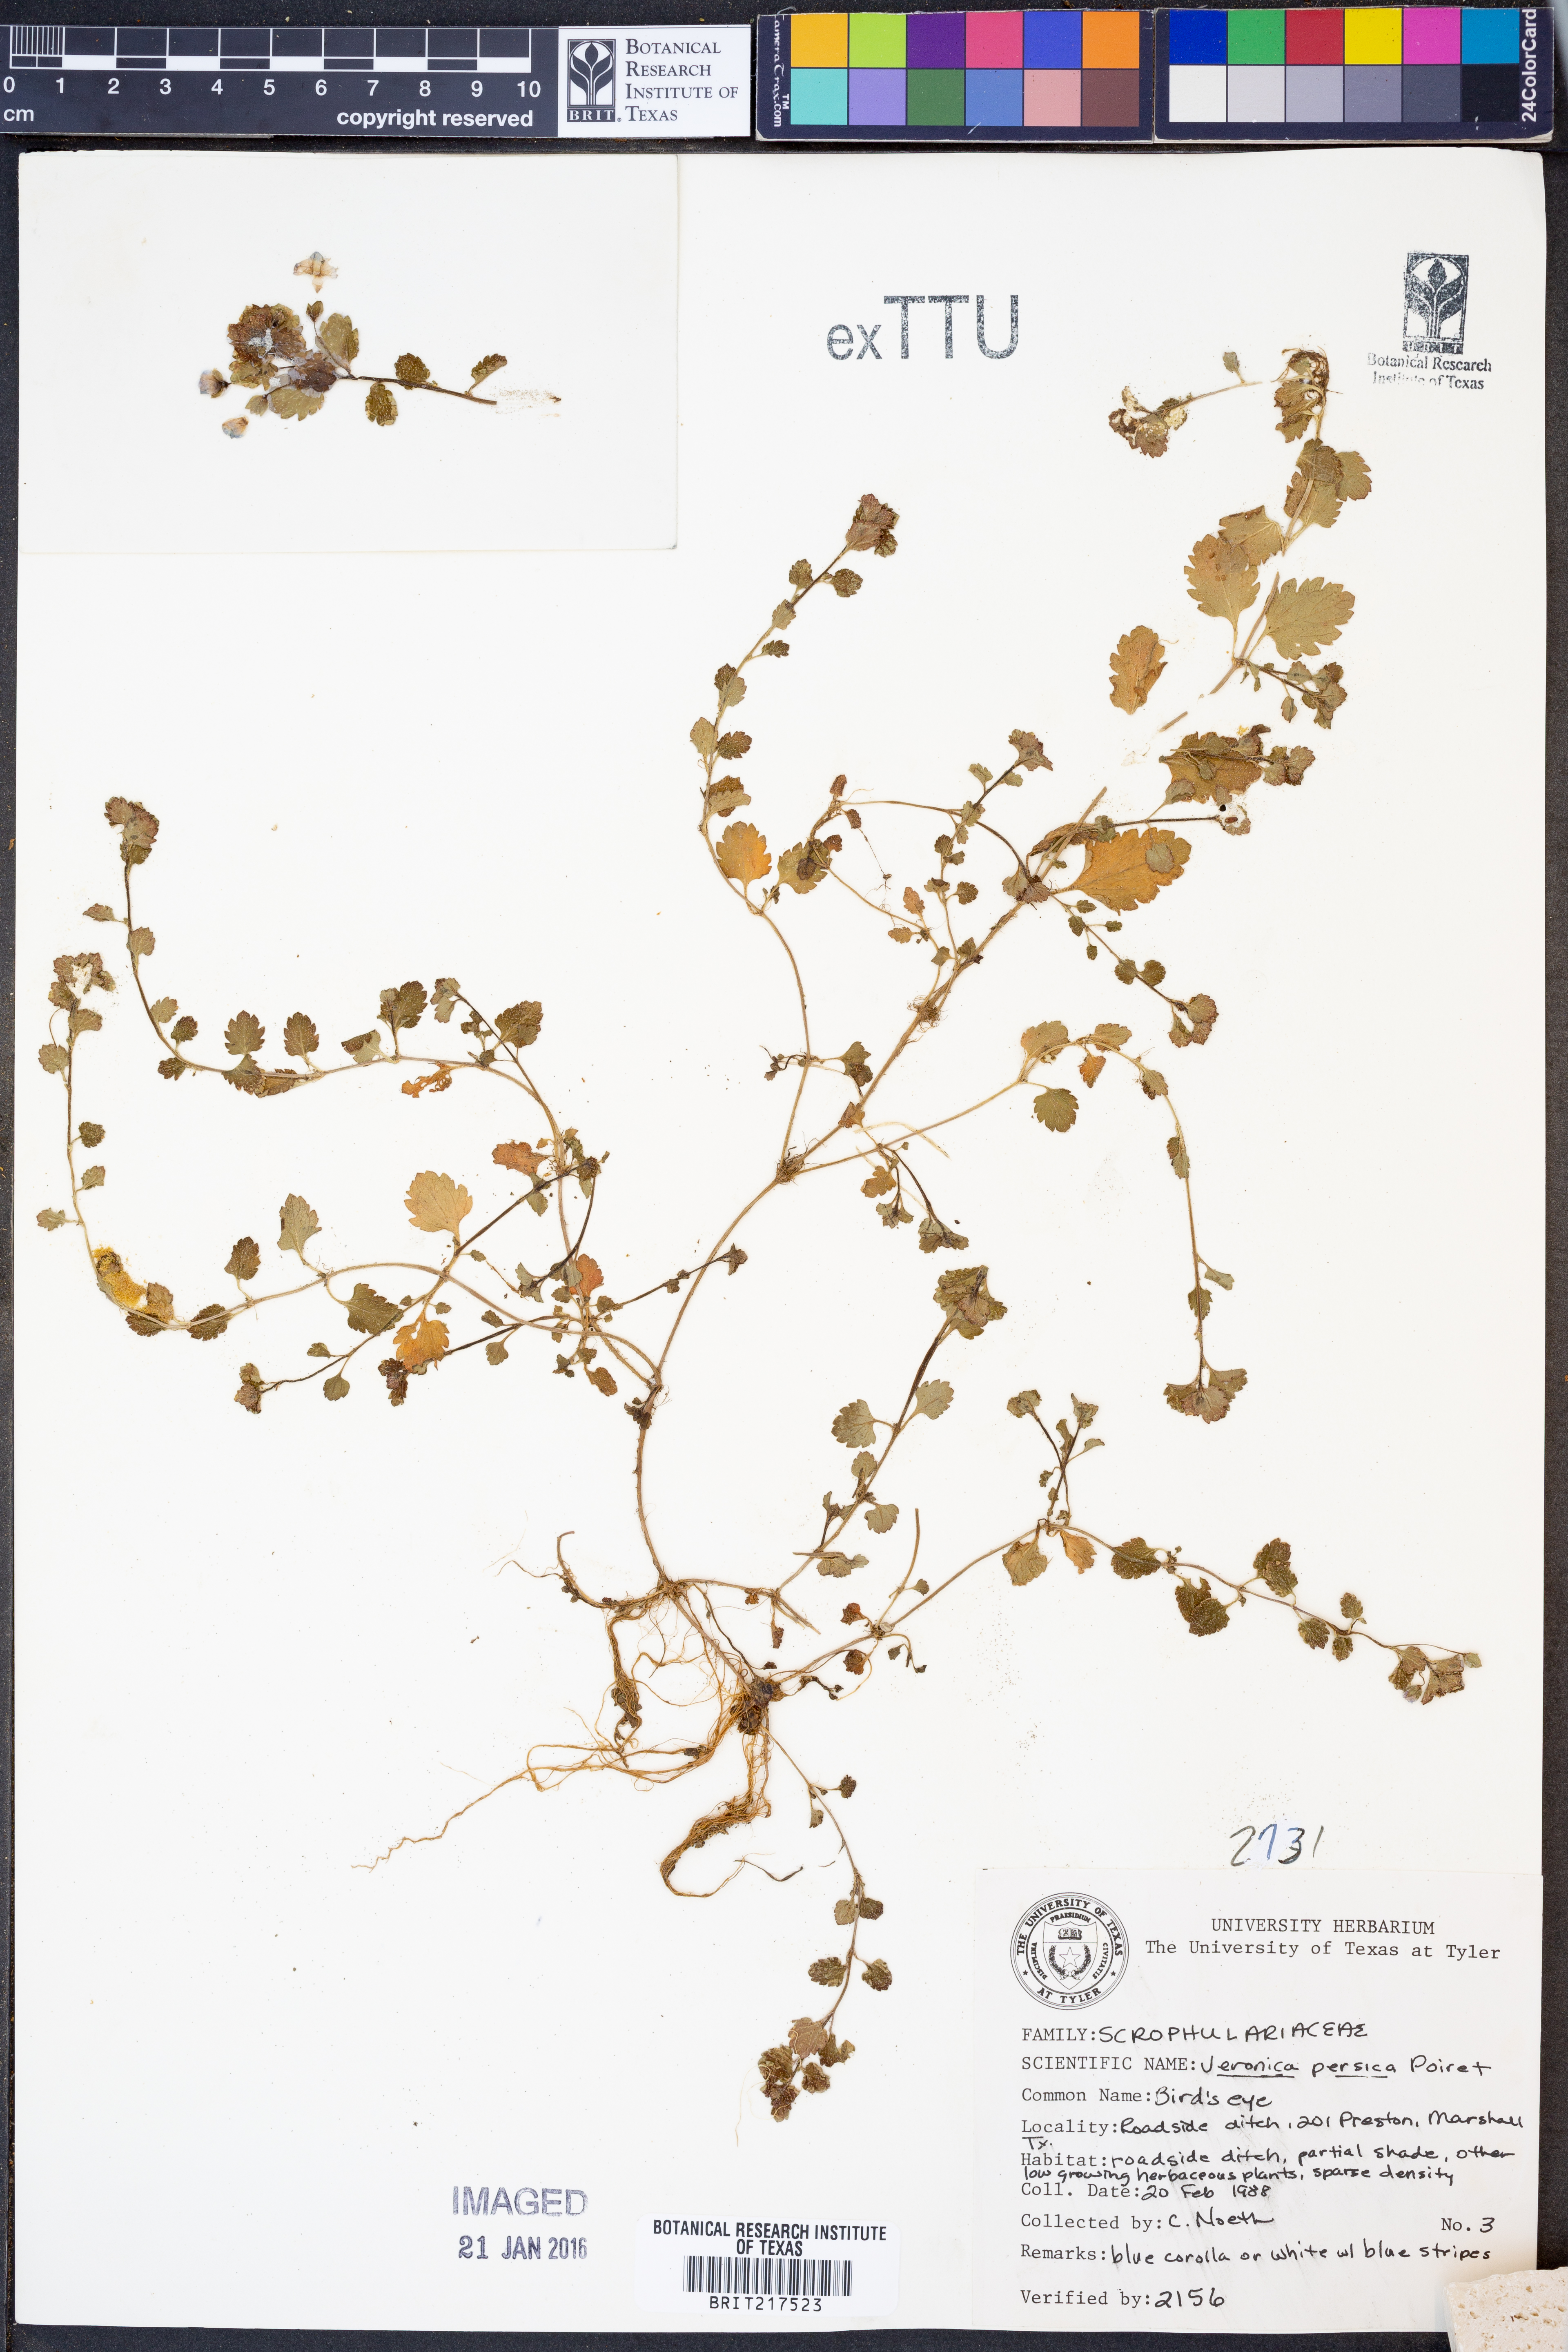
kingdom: Plantae
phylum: Tracheophyta
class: Magnoliopsida
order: Lamiales
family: Plantaginaceae
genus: Veronica
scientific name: Veronica persica
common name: Common field-speedwell
